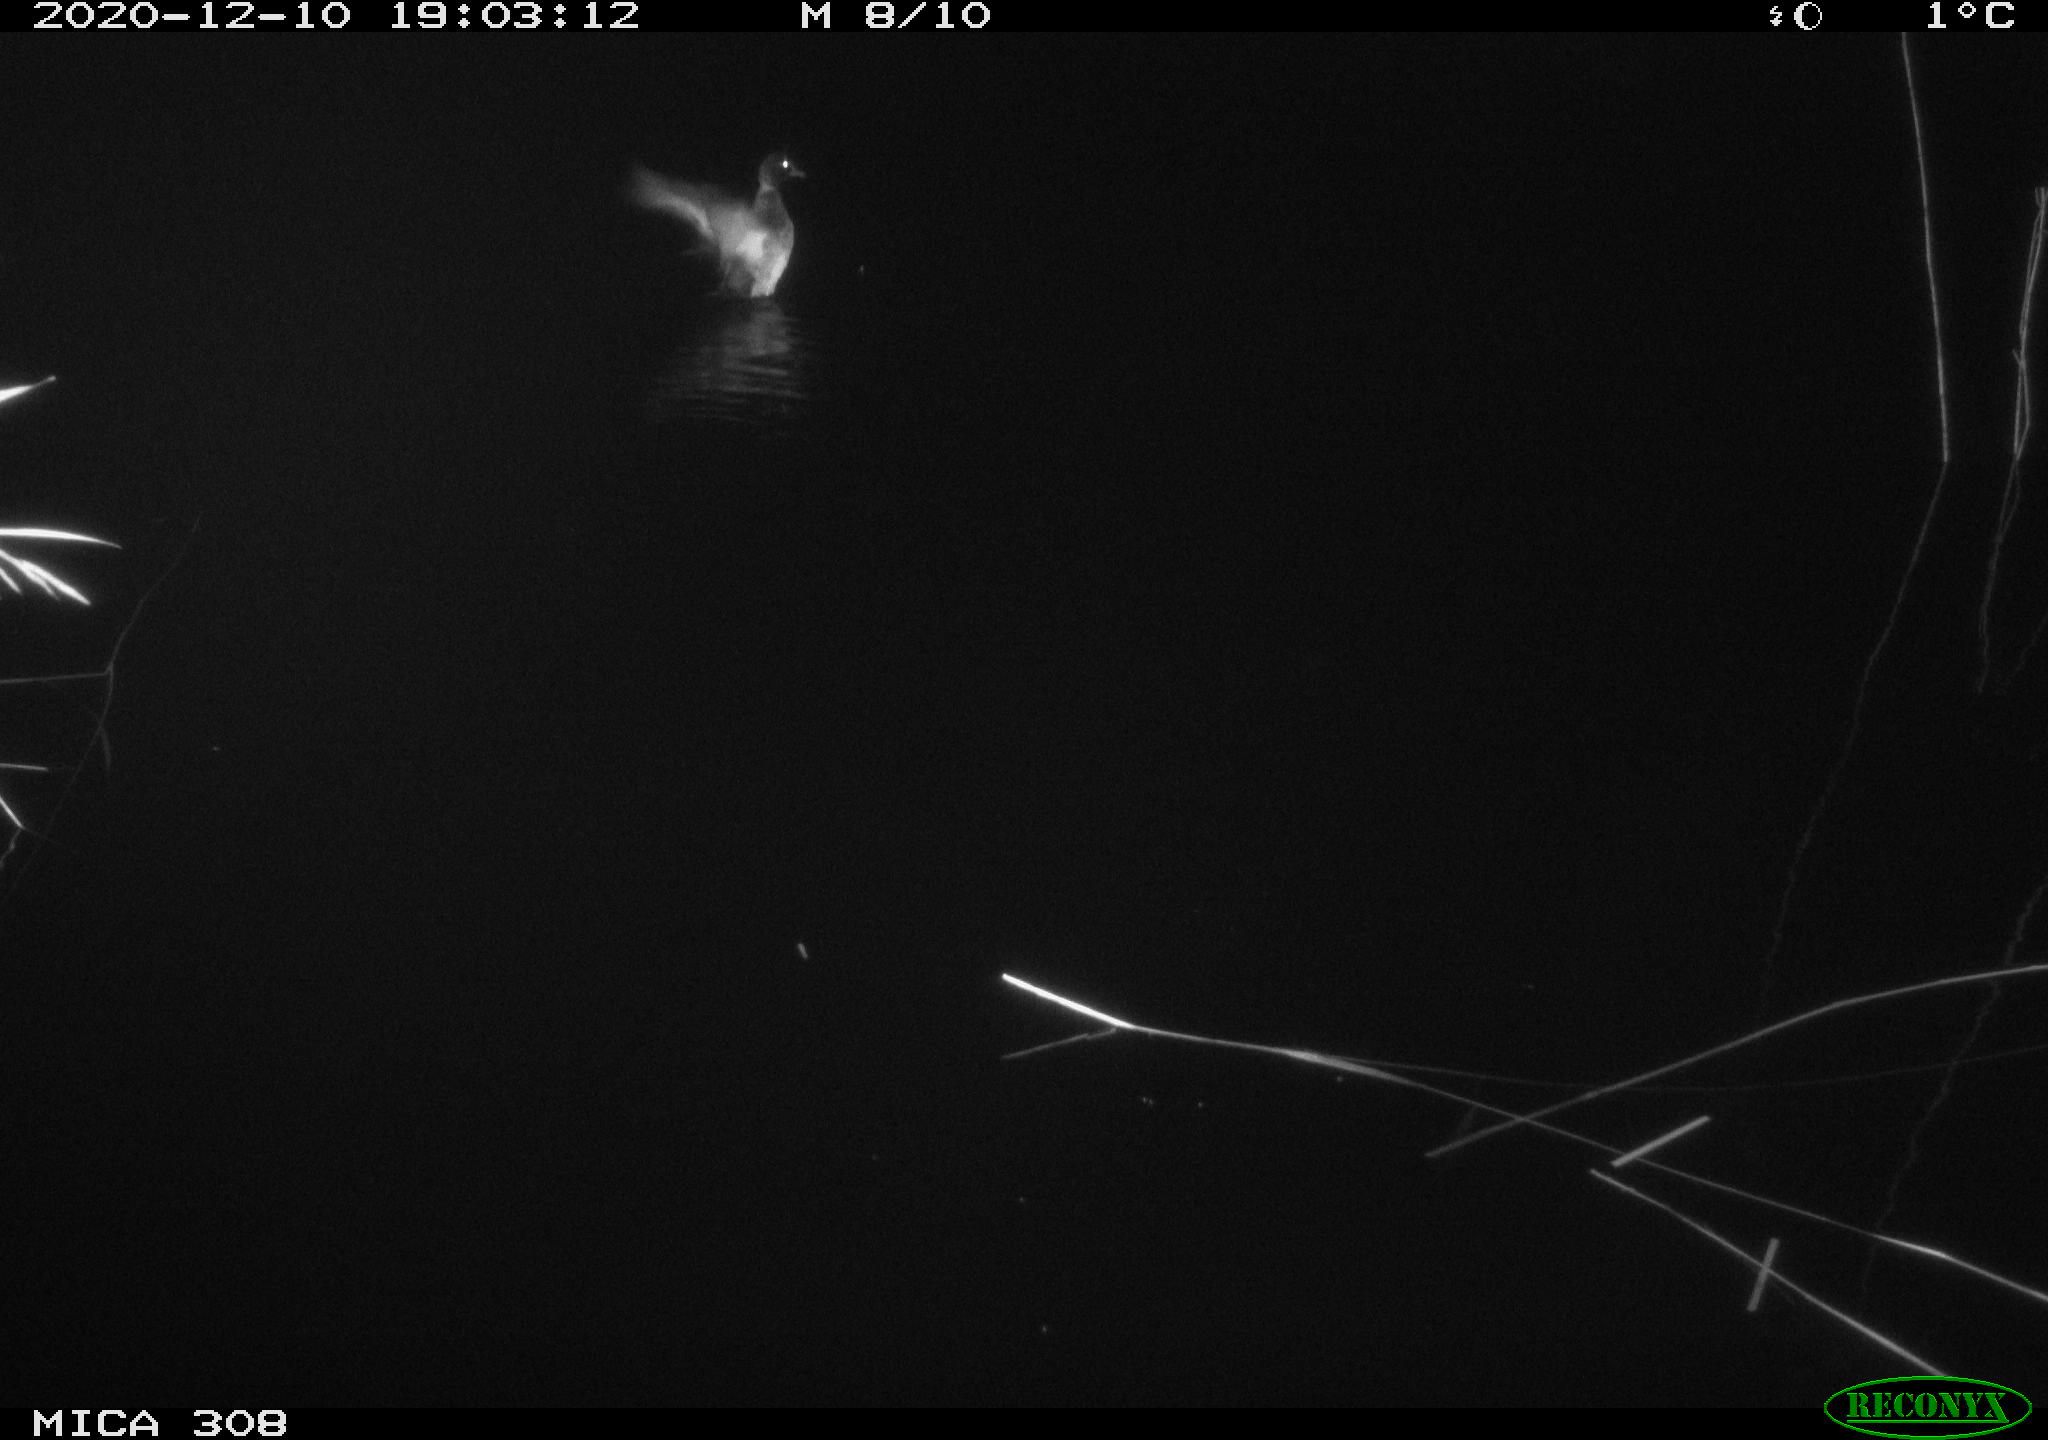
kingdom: Animalia
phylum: Chordata
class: Aves
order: Anseriformes
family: Anatidae
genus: Mareca
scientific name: Mareca strepera
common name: Gadwall
